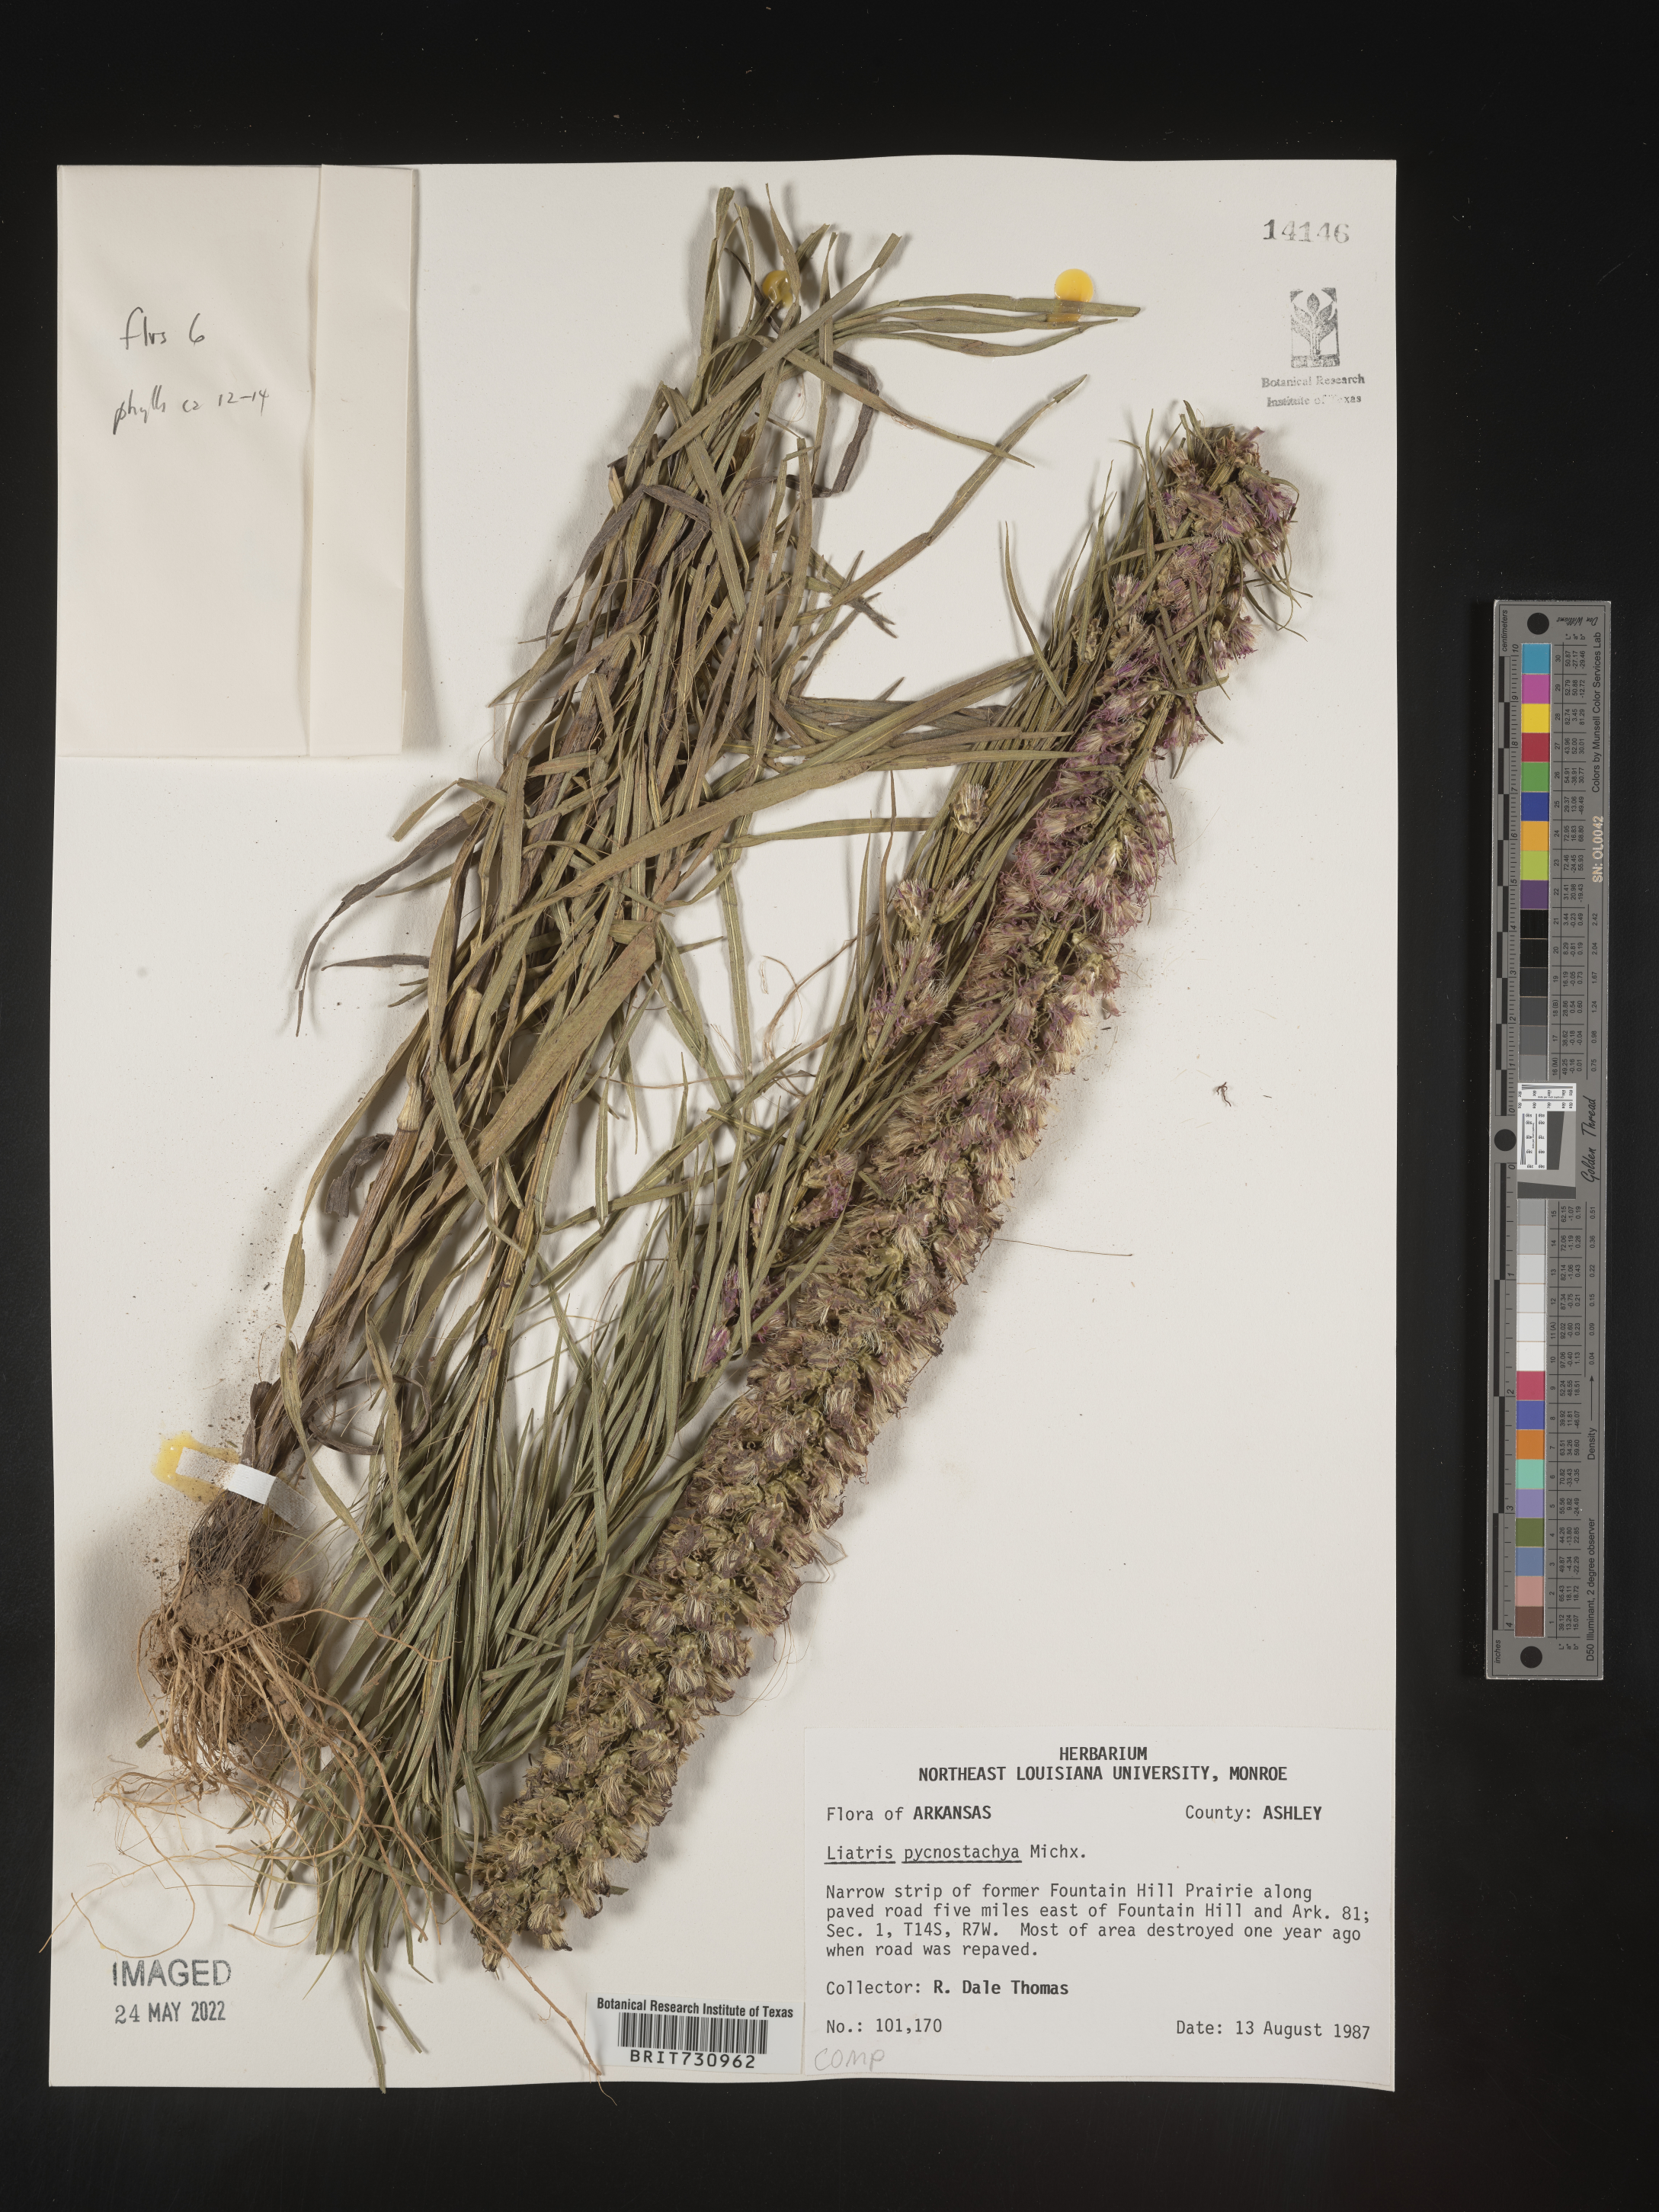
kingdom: Plantae
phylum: Tracheophyta
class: Magnoliopsida
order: Asterales
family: Asteraceae
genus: Liatris
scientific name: Liatris pycnostachya
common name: Cattail gayfeather
